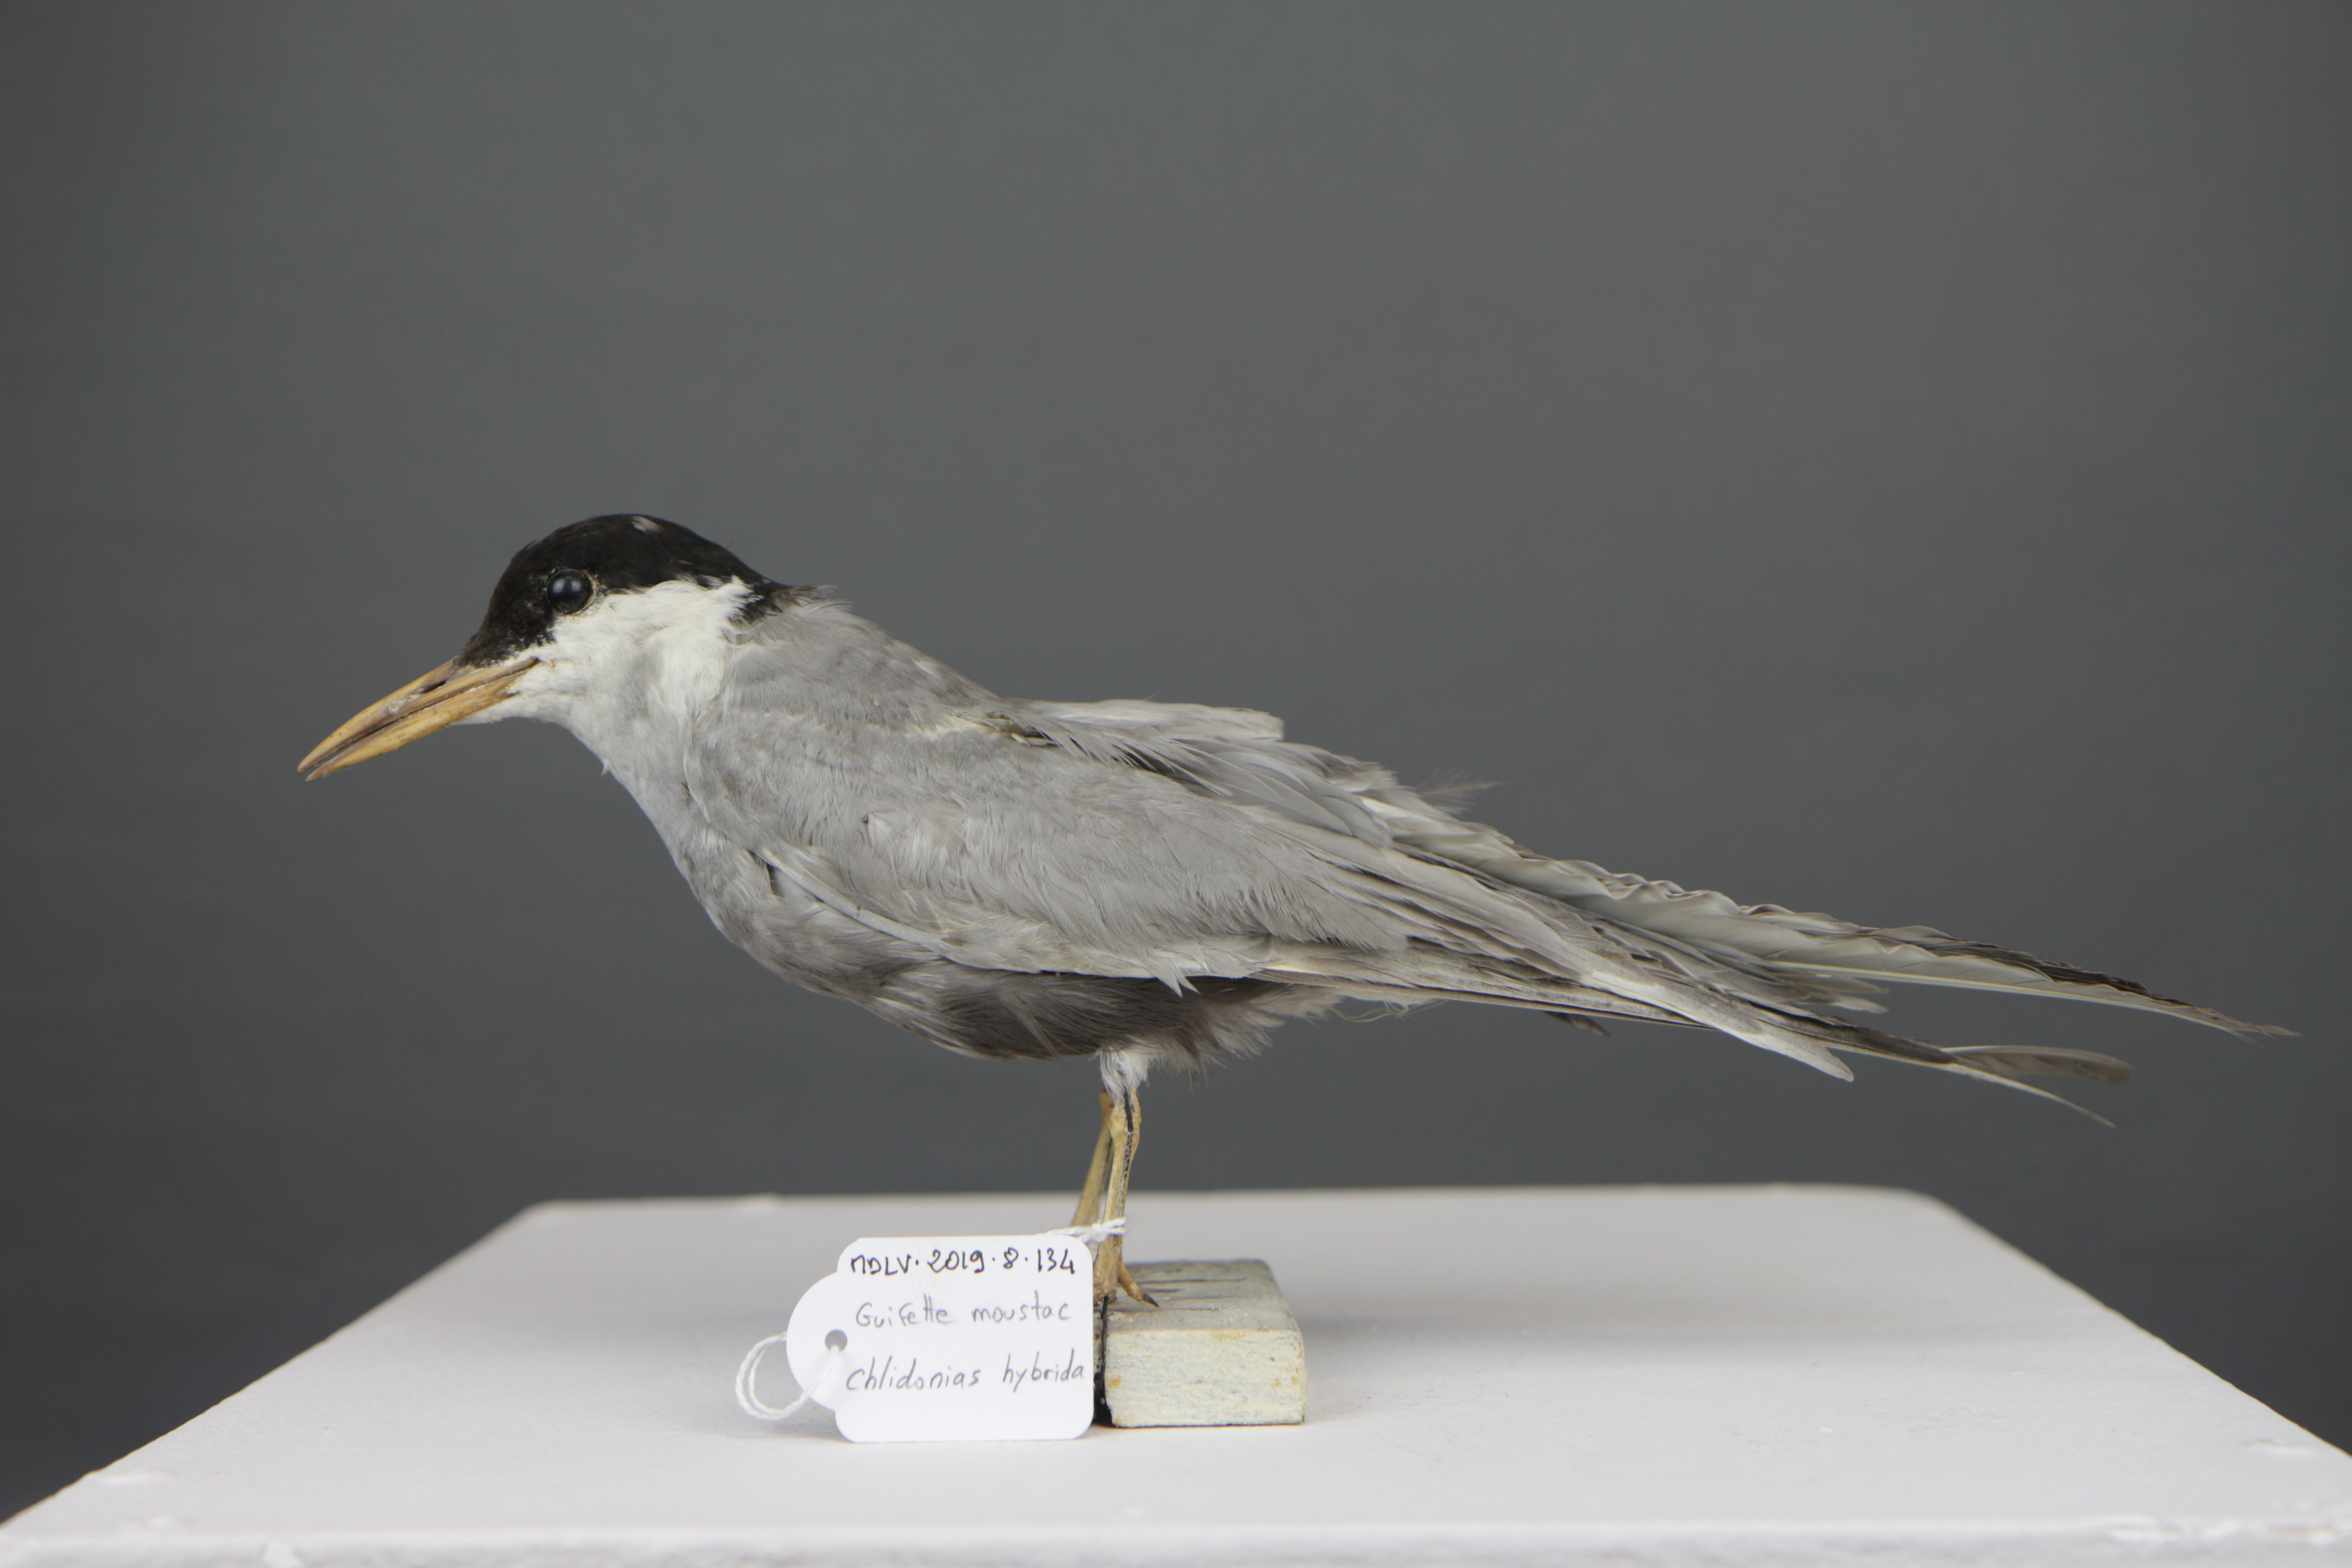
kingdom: Animalia
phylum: Chordata
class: Aves
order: Charadriiformes
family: Laridae
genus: Chlidonias
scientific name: Chlidonias hybrida
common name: Whiskered tern
